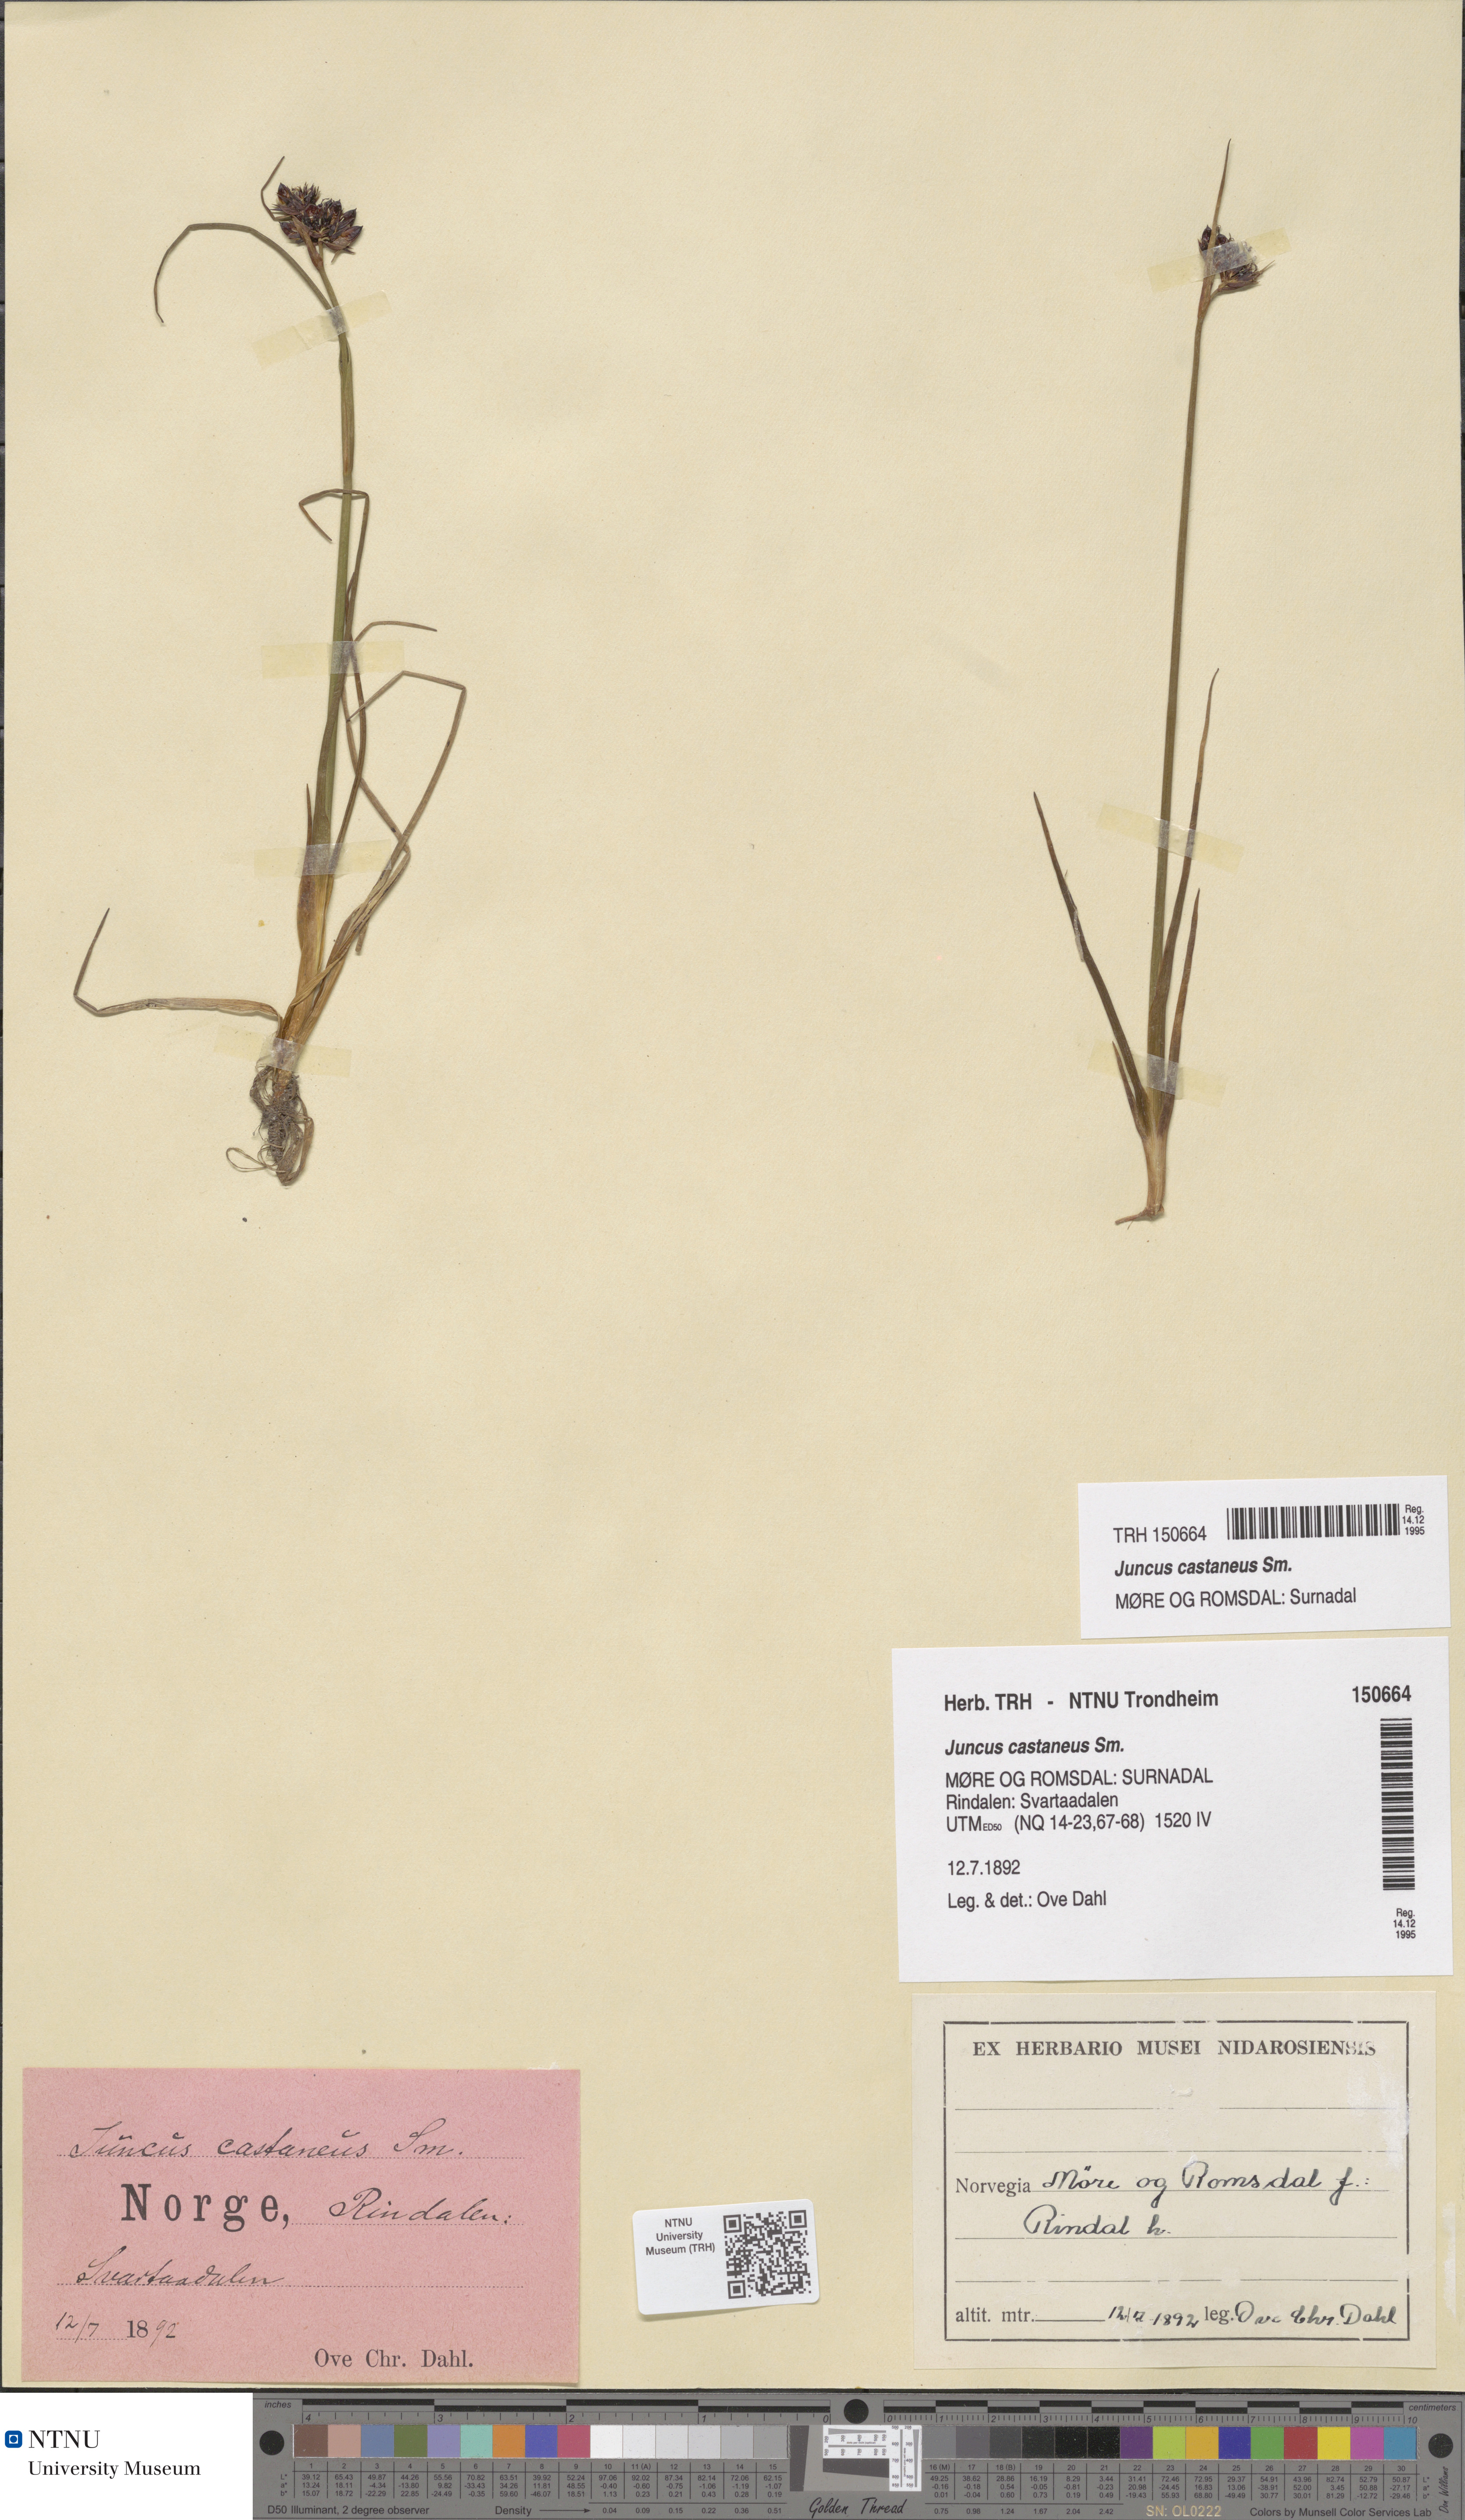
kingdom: Plantae
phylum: Tracheophyta
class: Liliopsida
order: Poales
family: Juncaceae
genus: Juncus
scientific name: Juncus castaneus
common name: Chestnut rush
